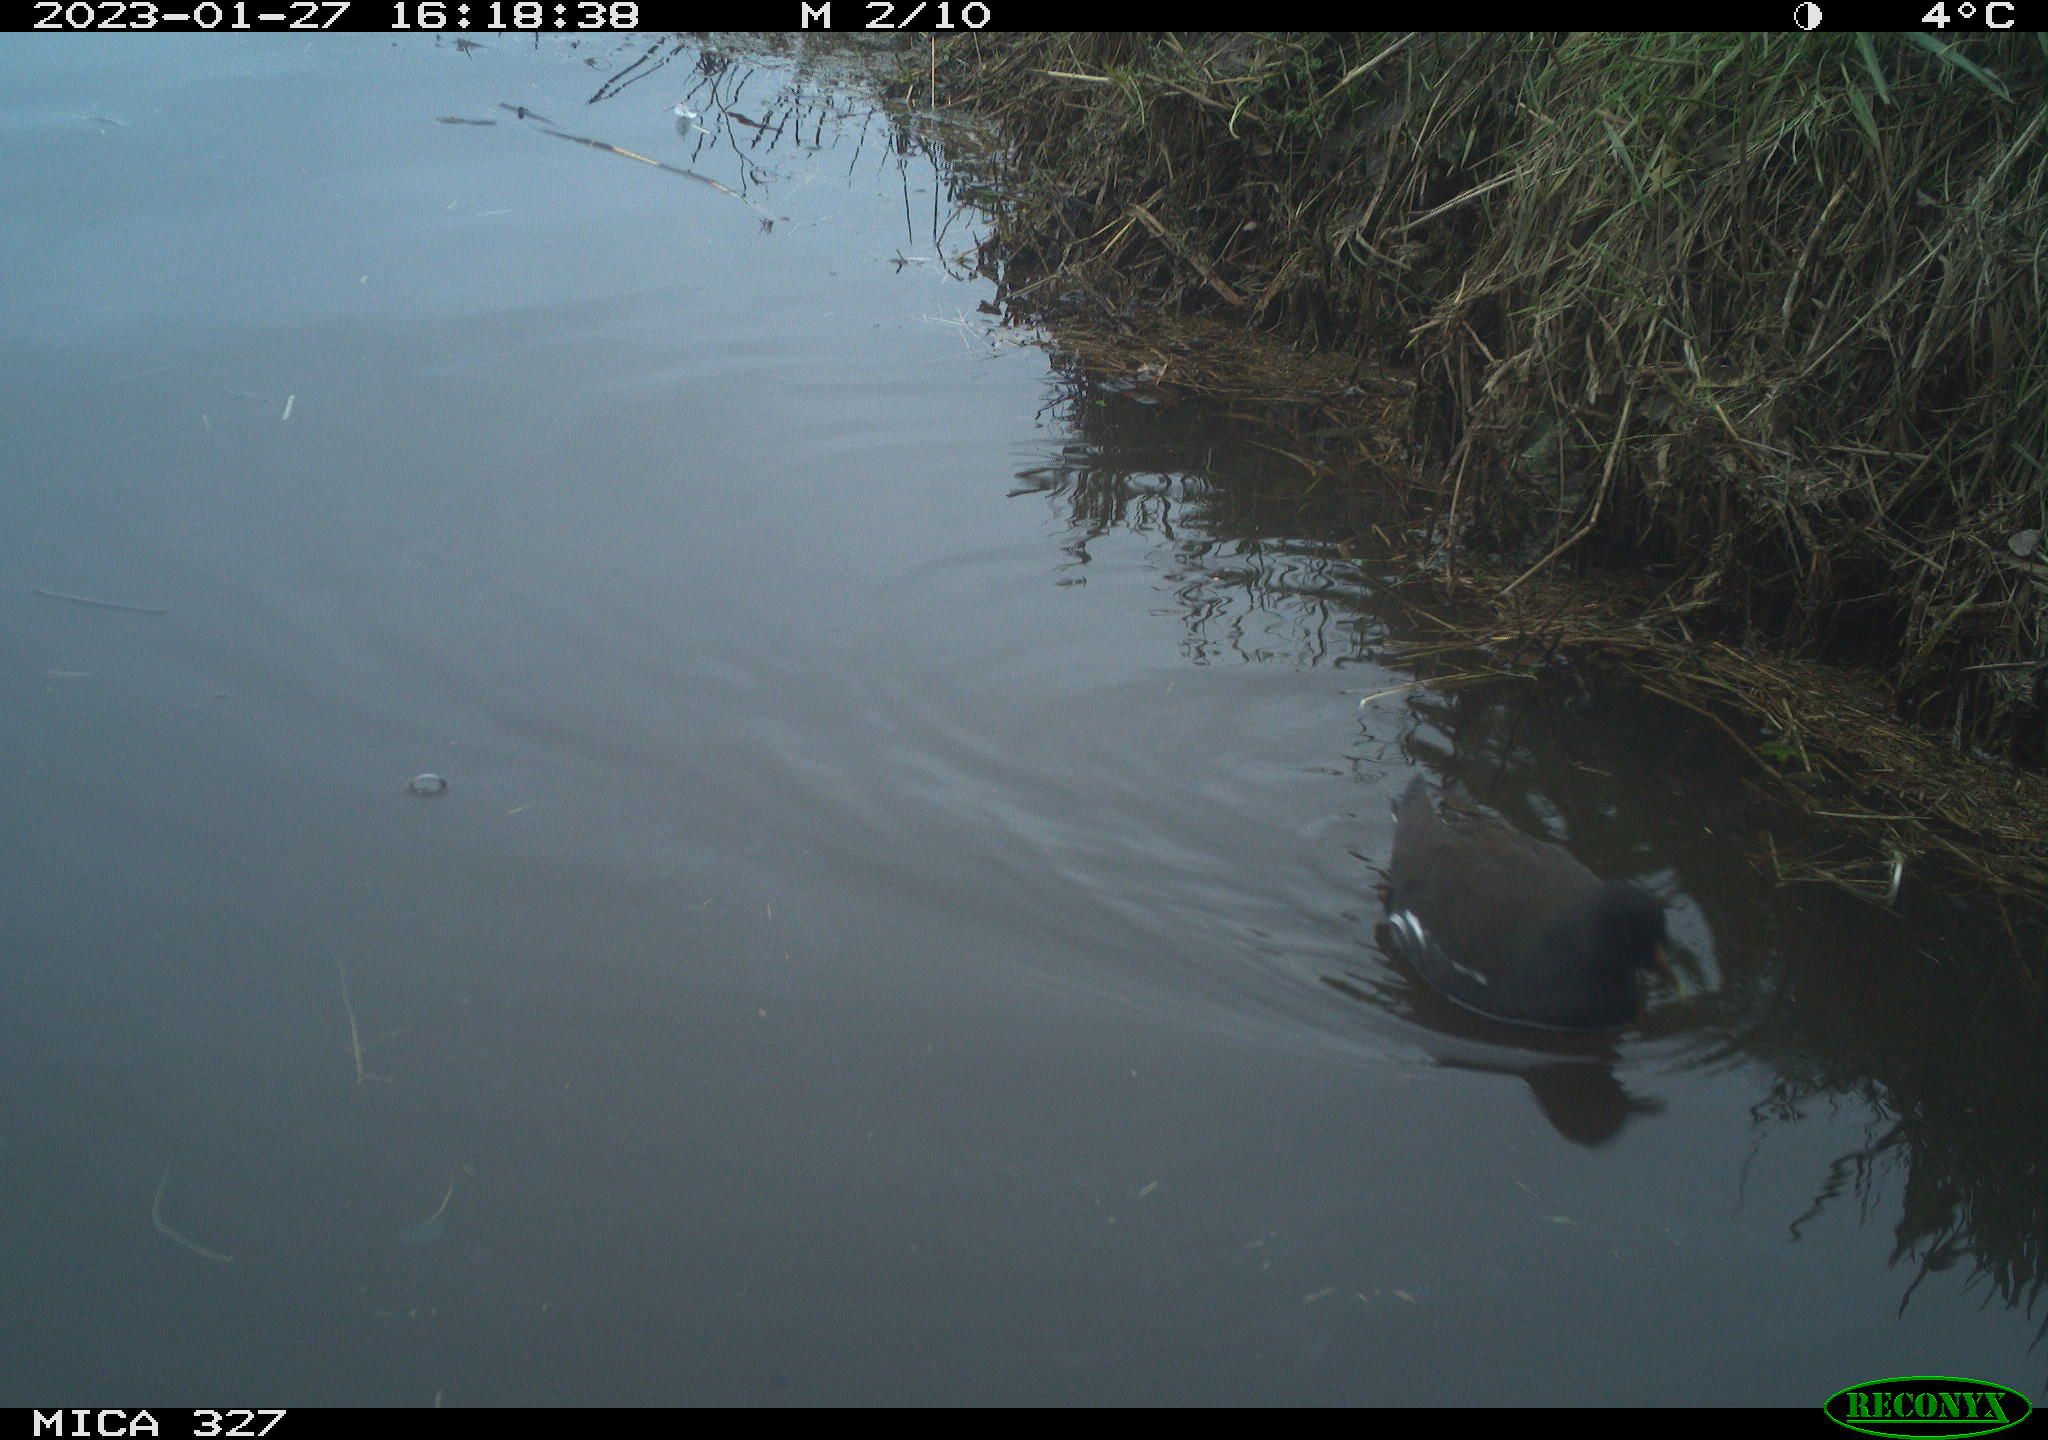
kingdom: Animalia
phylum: Chordata
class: Aves
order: Gruiformes
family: Rallidae
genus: Gallinula
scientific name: Gallinula chloropus
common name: Common moorhen
